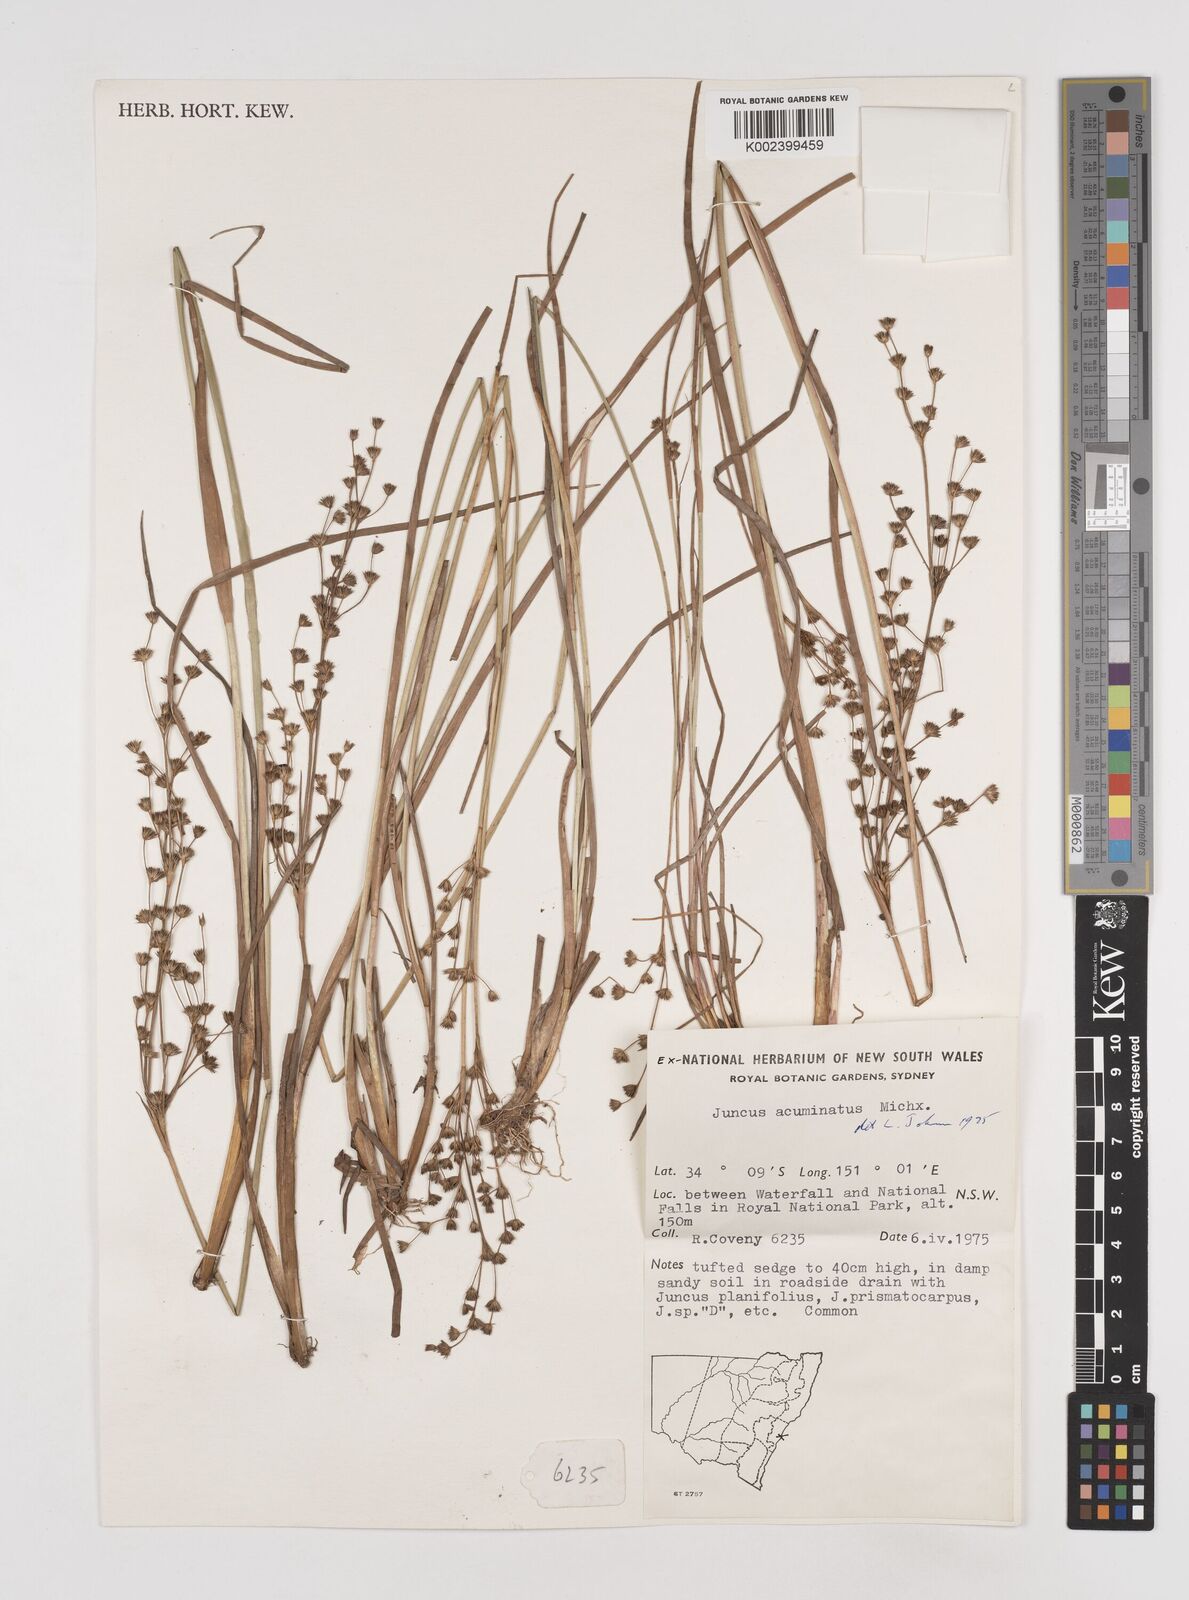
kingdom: Plantae
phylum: Tracheophyta
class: Liliopsida
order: Poales
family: Juncaceae
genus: Juncus
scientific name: Juncus arcticus
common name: Arctic rush
